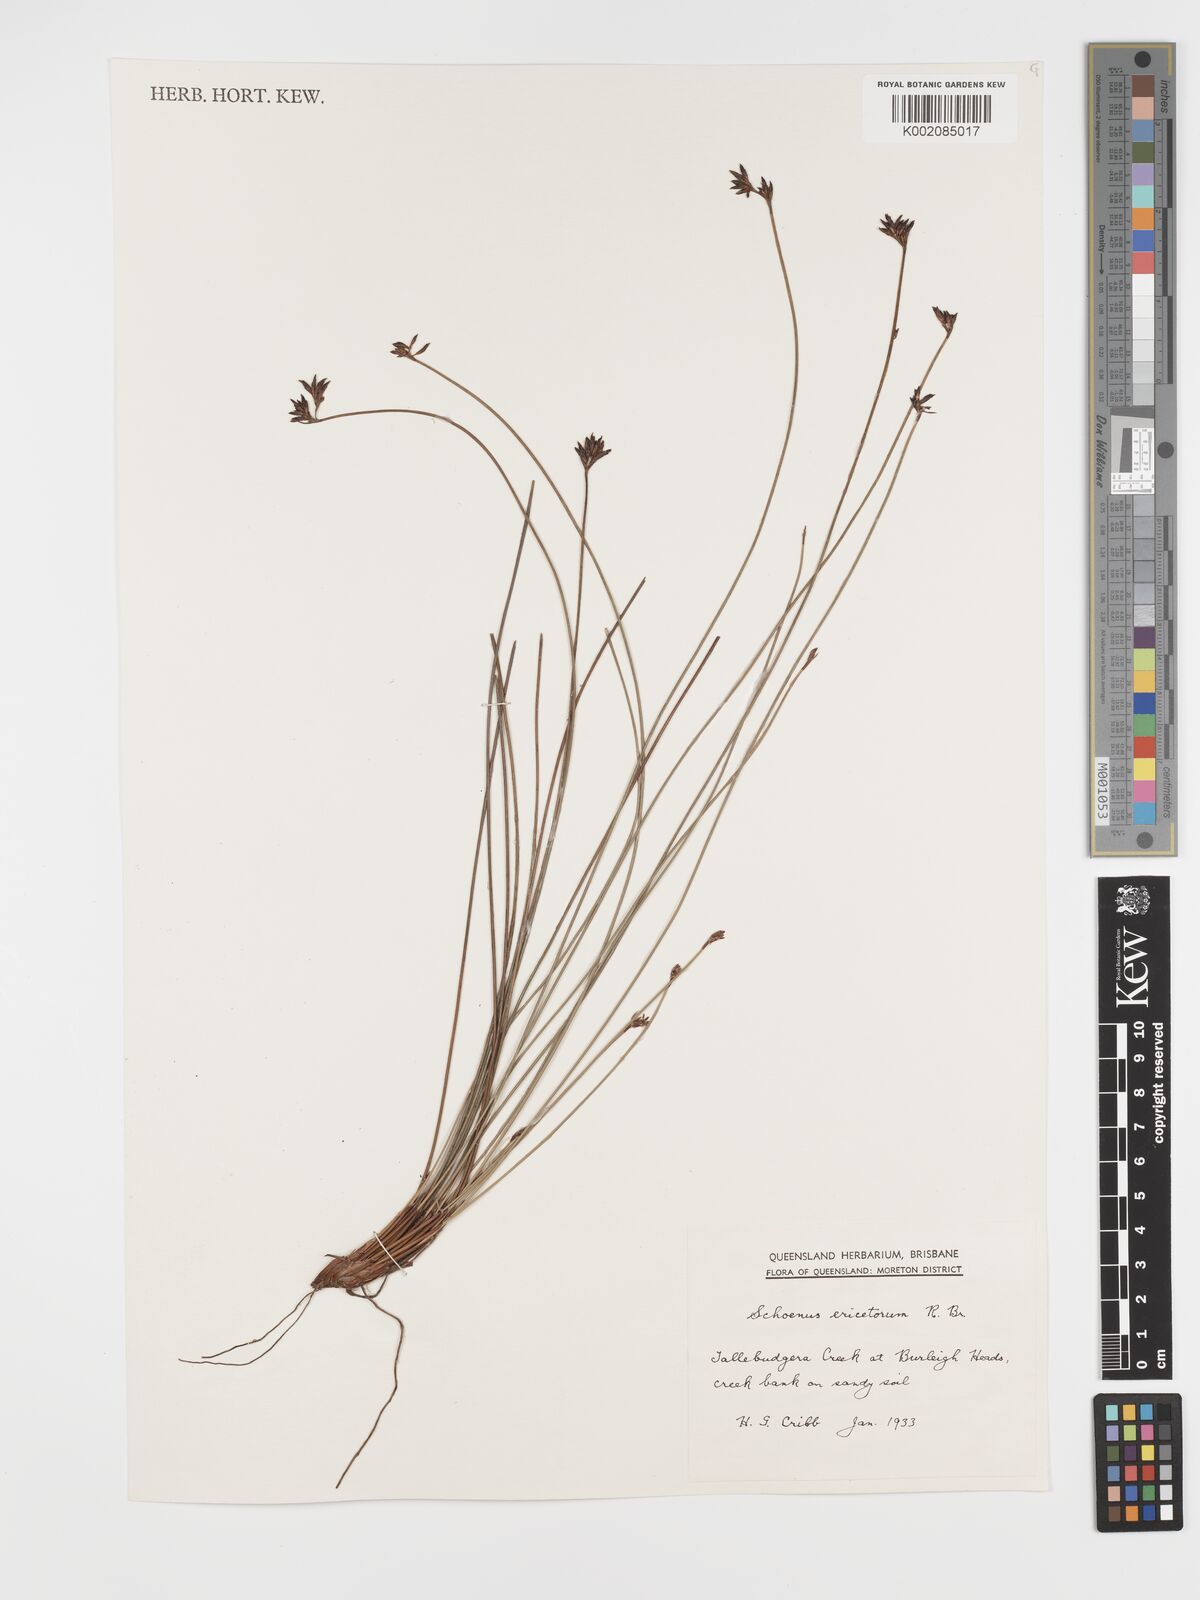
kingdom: Plantae
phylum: Tracheophyta
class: Liliopsida
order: Poales
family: Cyperaceae
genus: Schoenus
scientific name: Schoenus ericetorum
